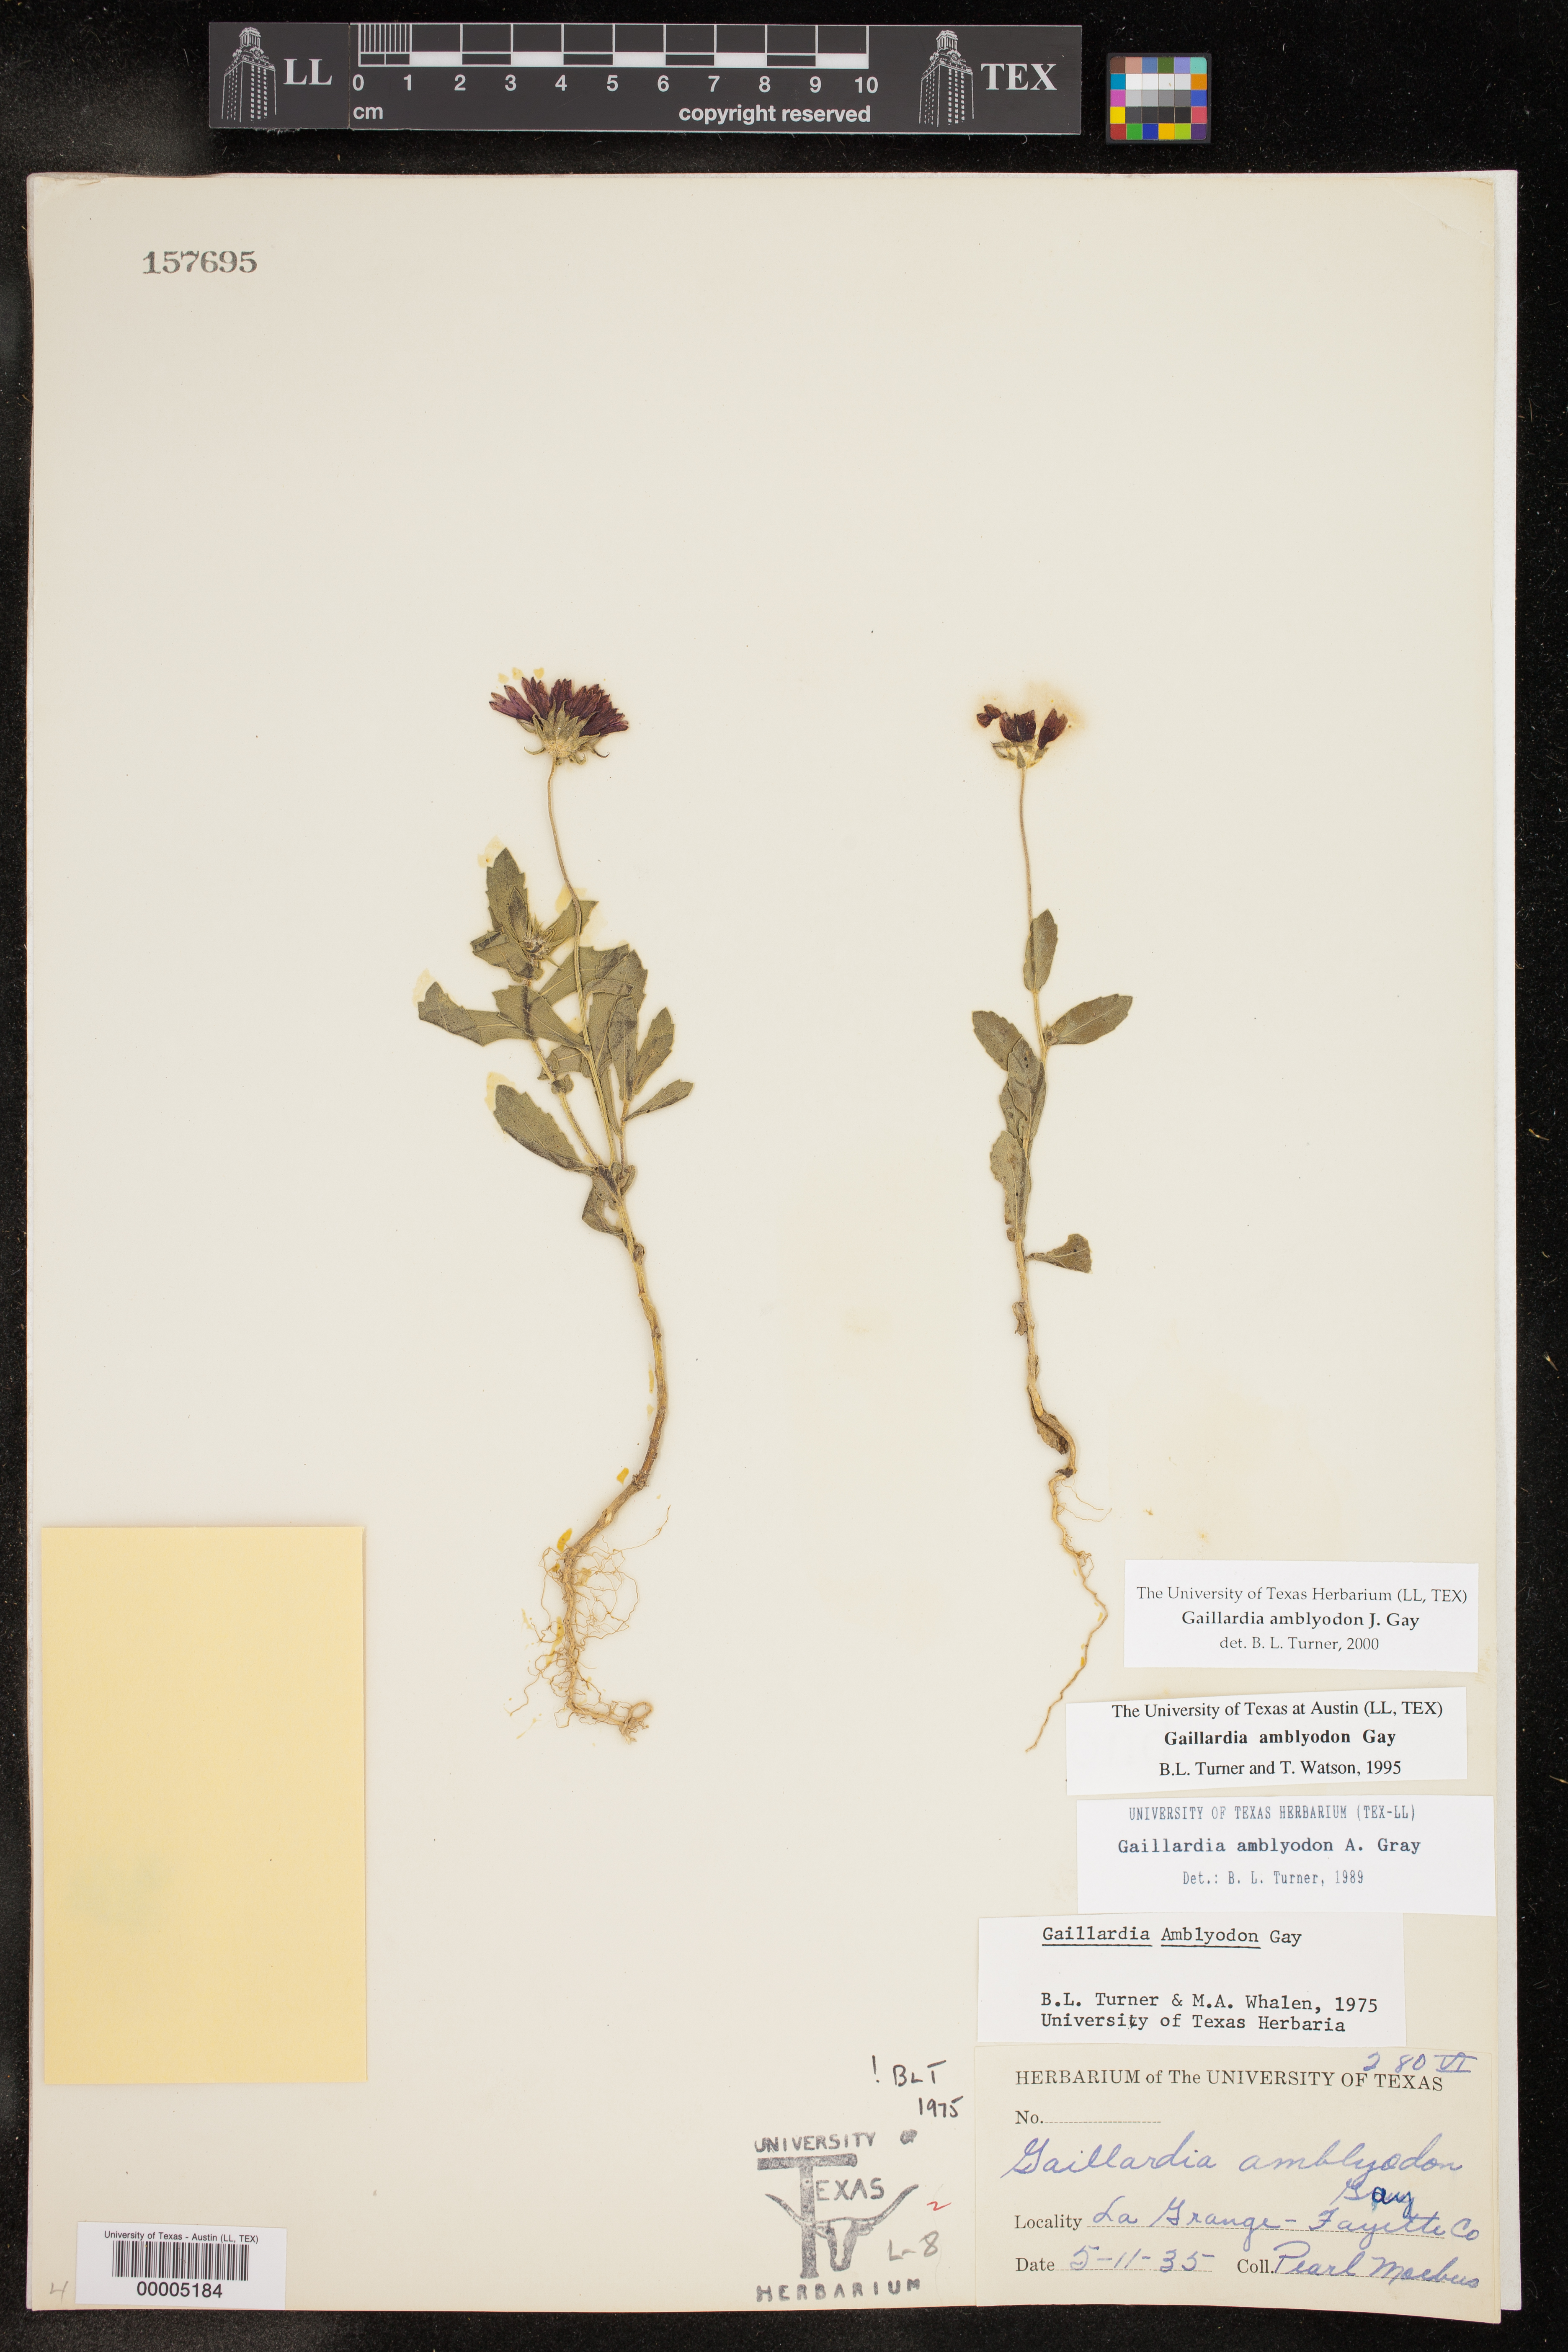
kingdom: Plantae
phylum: Tracheophyta
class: Magnoliopsida
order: Asterales
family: Asteraceae
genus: Gaillardia
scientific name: Gaillardia amblyodon
